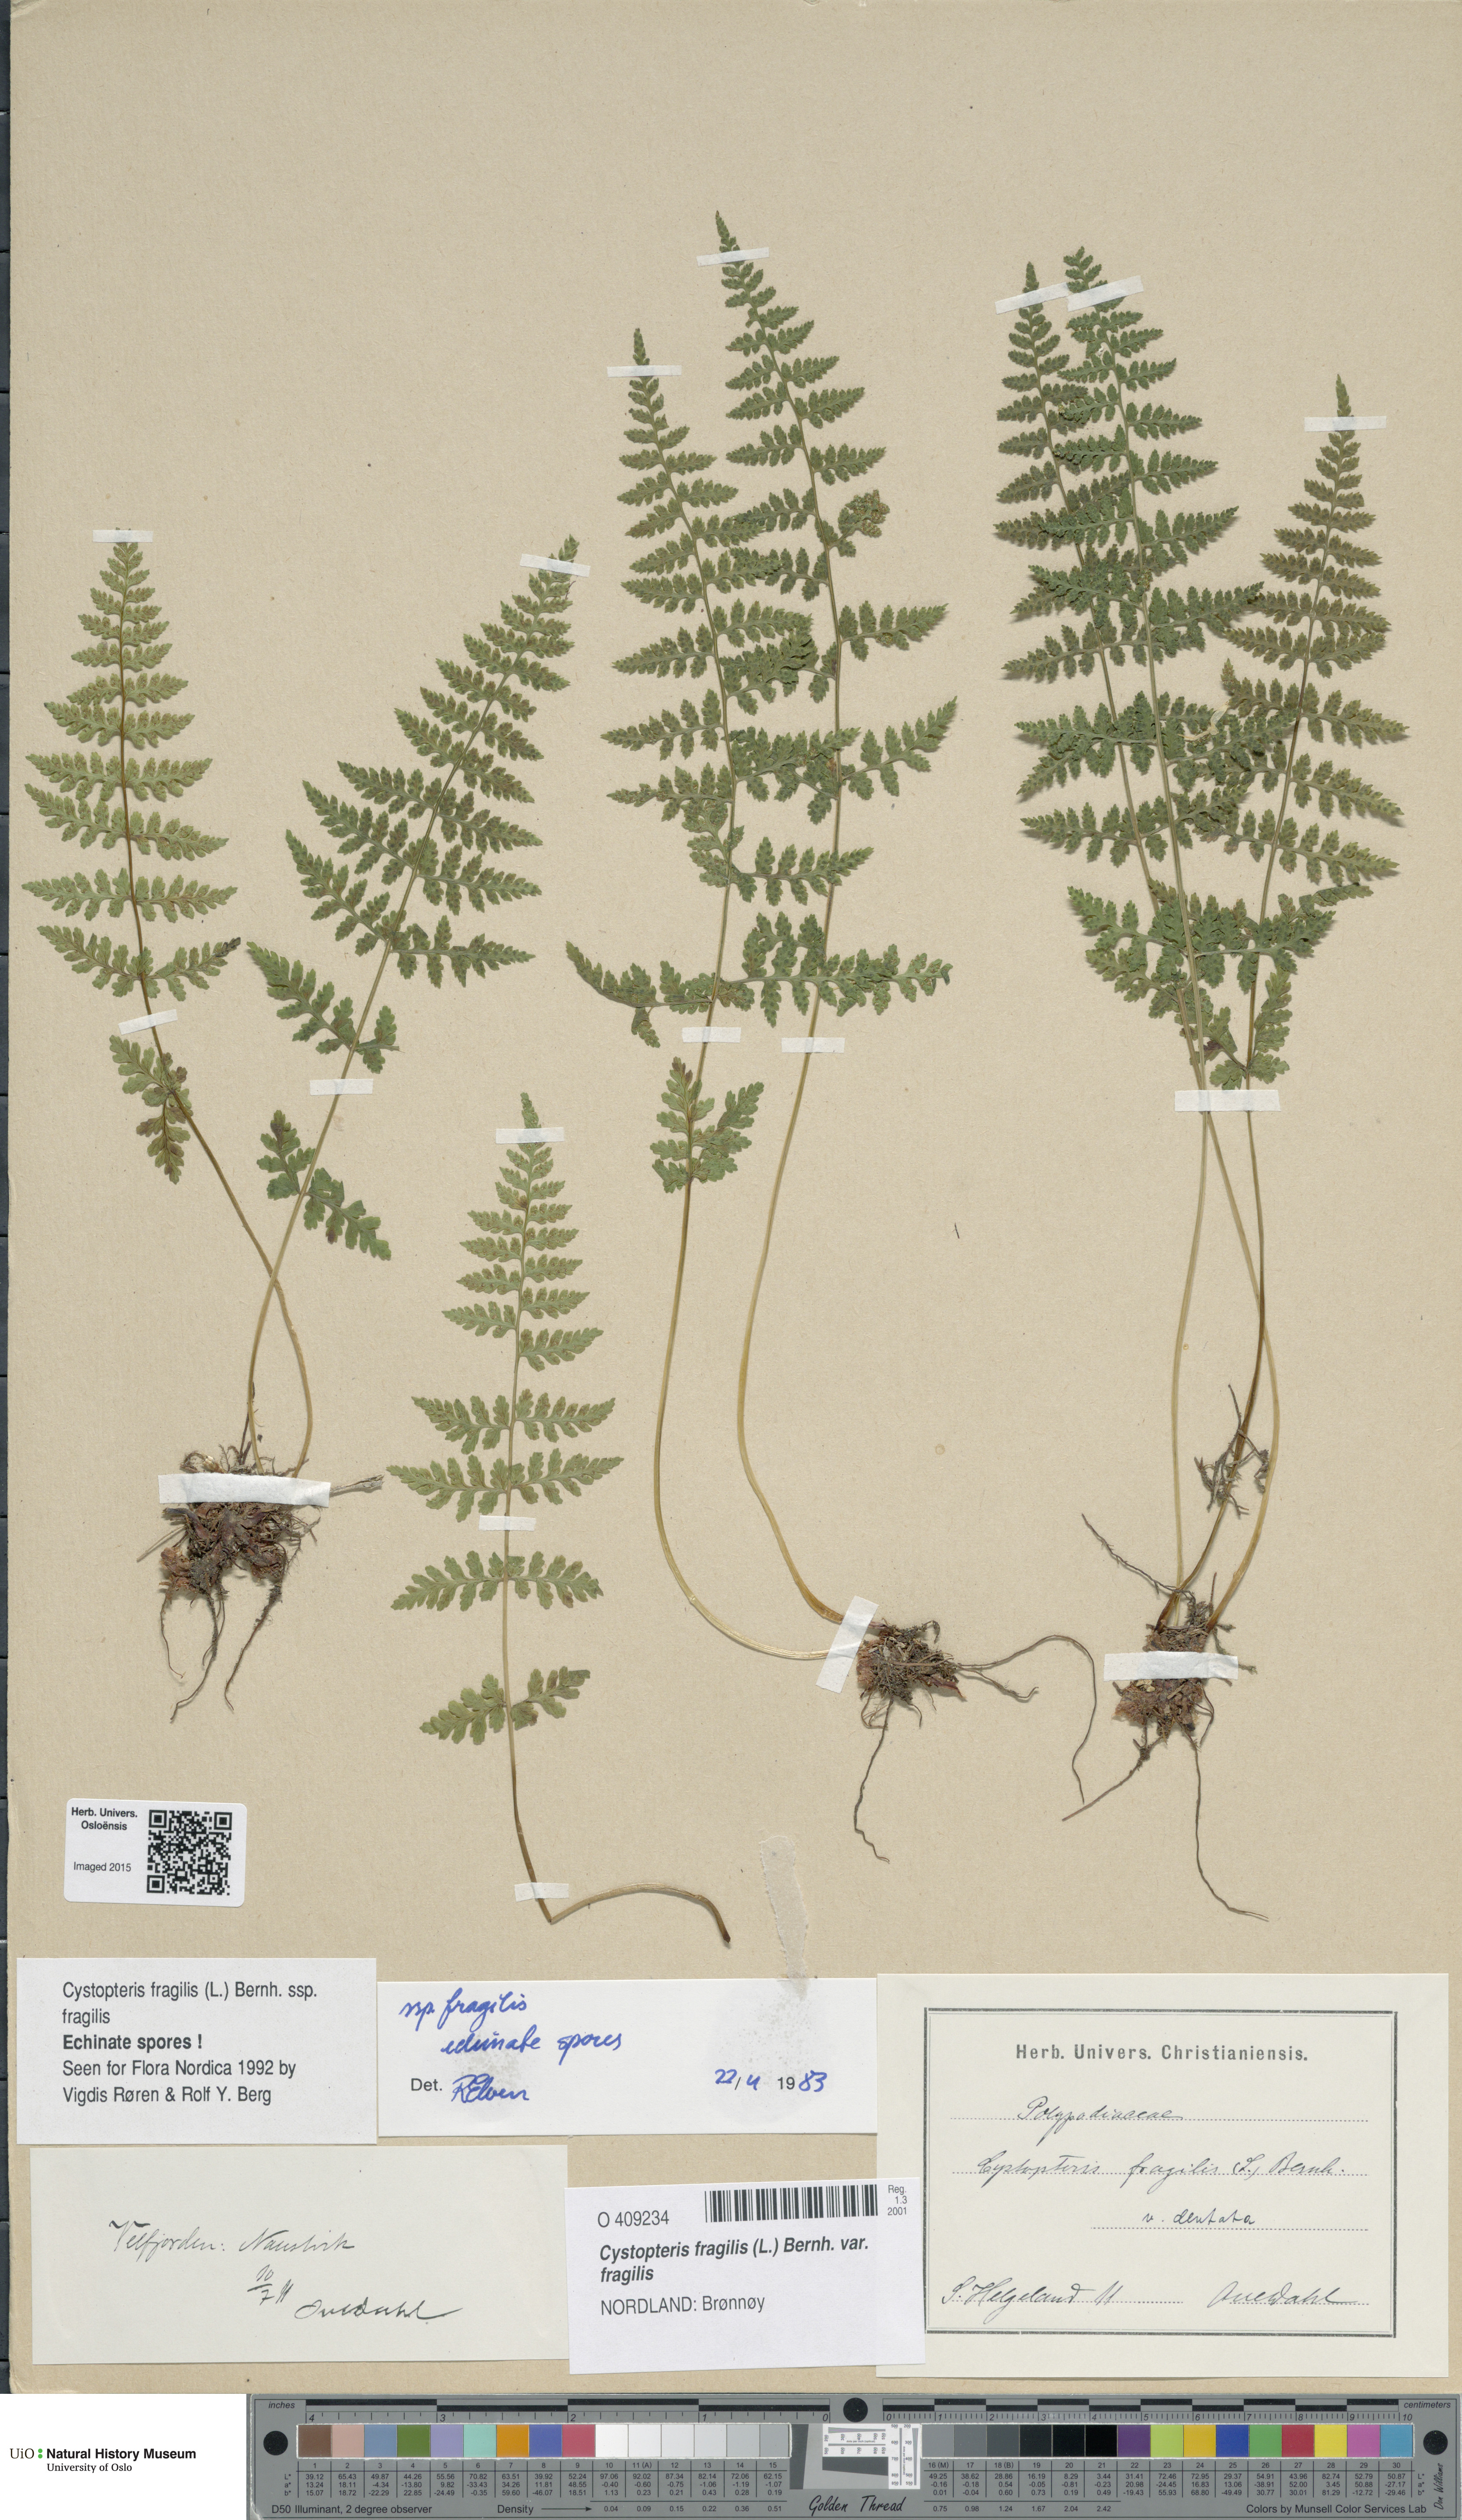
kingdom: Plantae
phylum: Tracheophyta
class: Polypodiopsida
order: Polypodiales
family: Cystopteridaceae
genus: Cystopteris
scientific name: Cystopteris fragilis
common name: Brittle bladder fern
